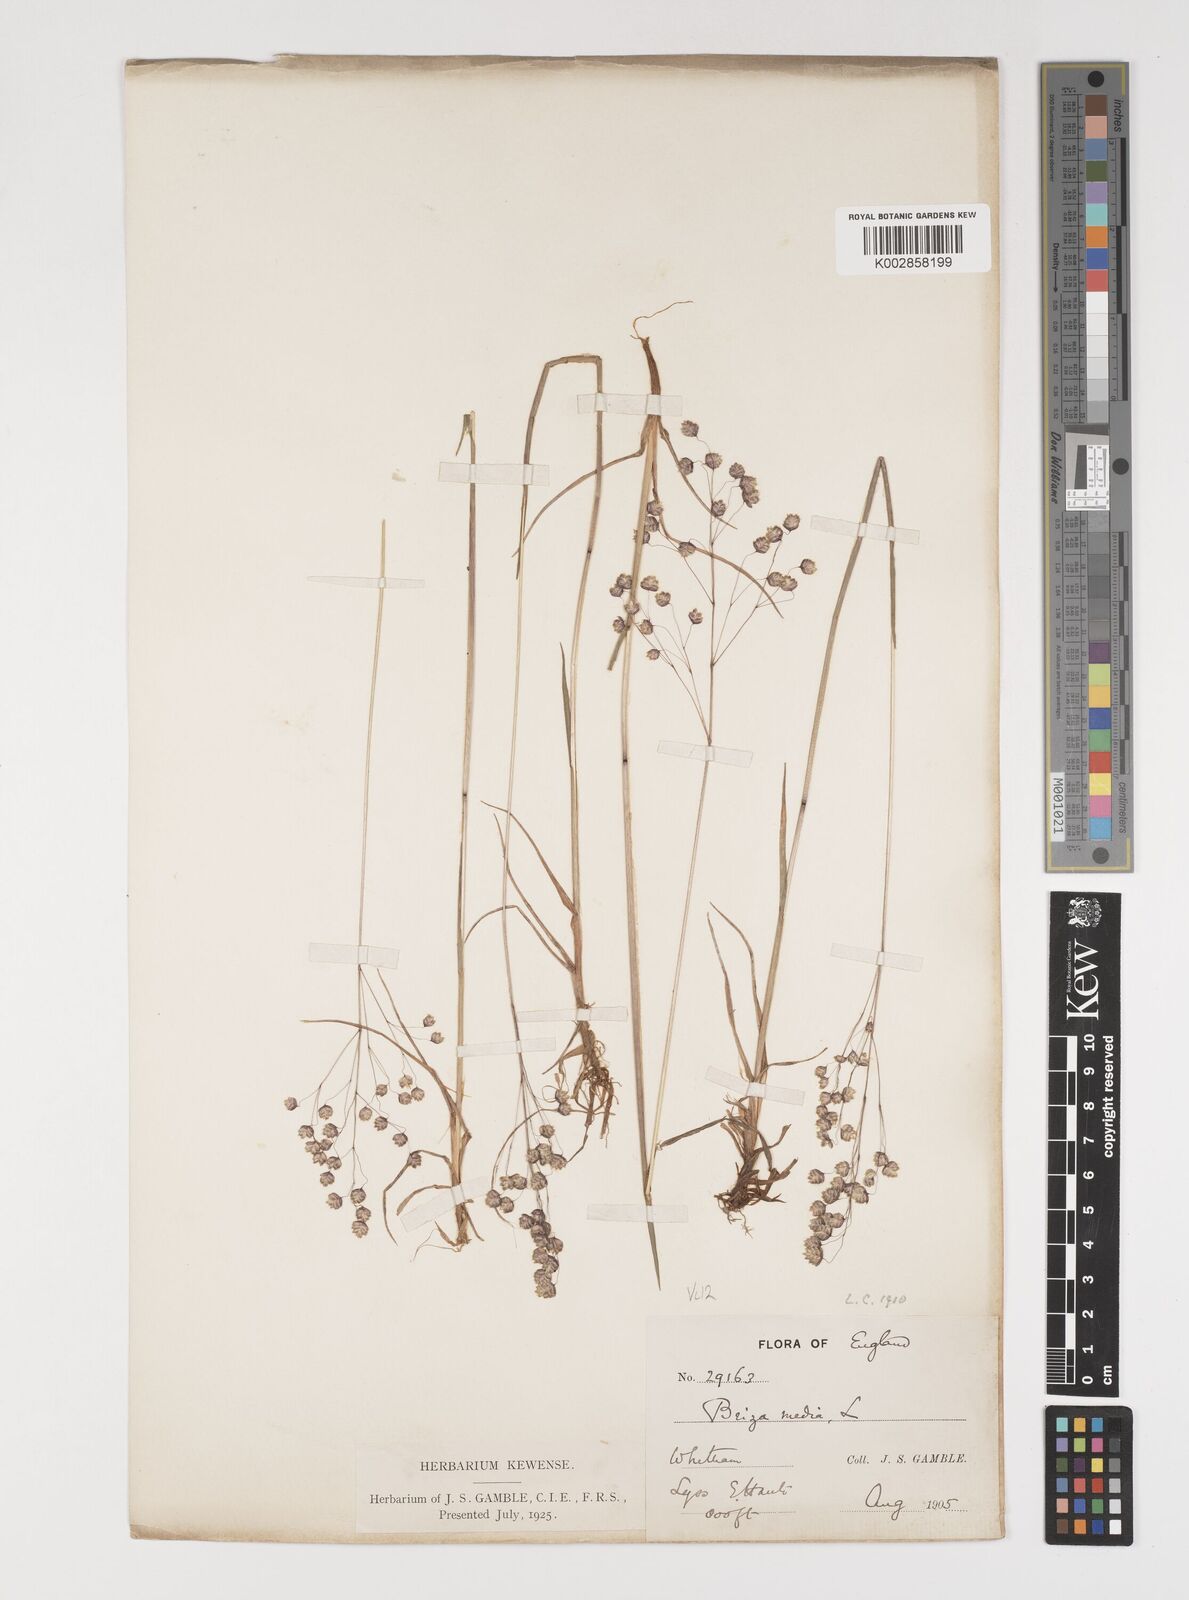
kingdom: Plantae
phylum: Tracheophyta
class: Liliopsida
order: Poales
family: Poaceae
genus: Briza
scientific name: Briza media
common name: Quaking grass
